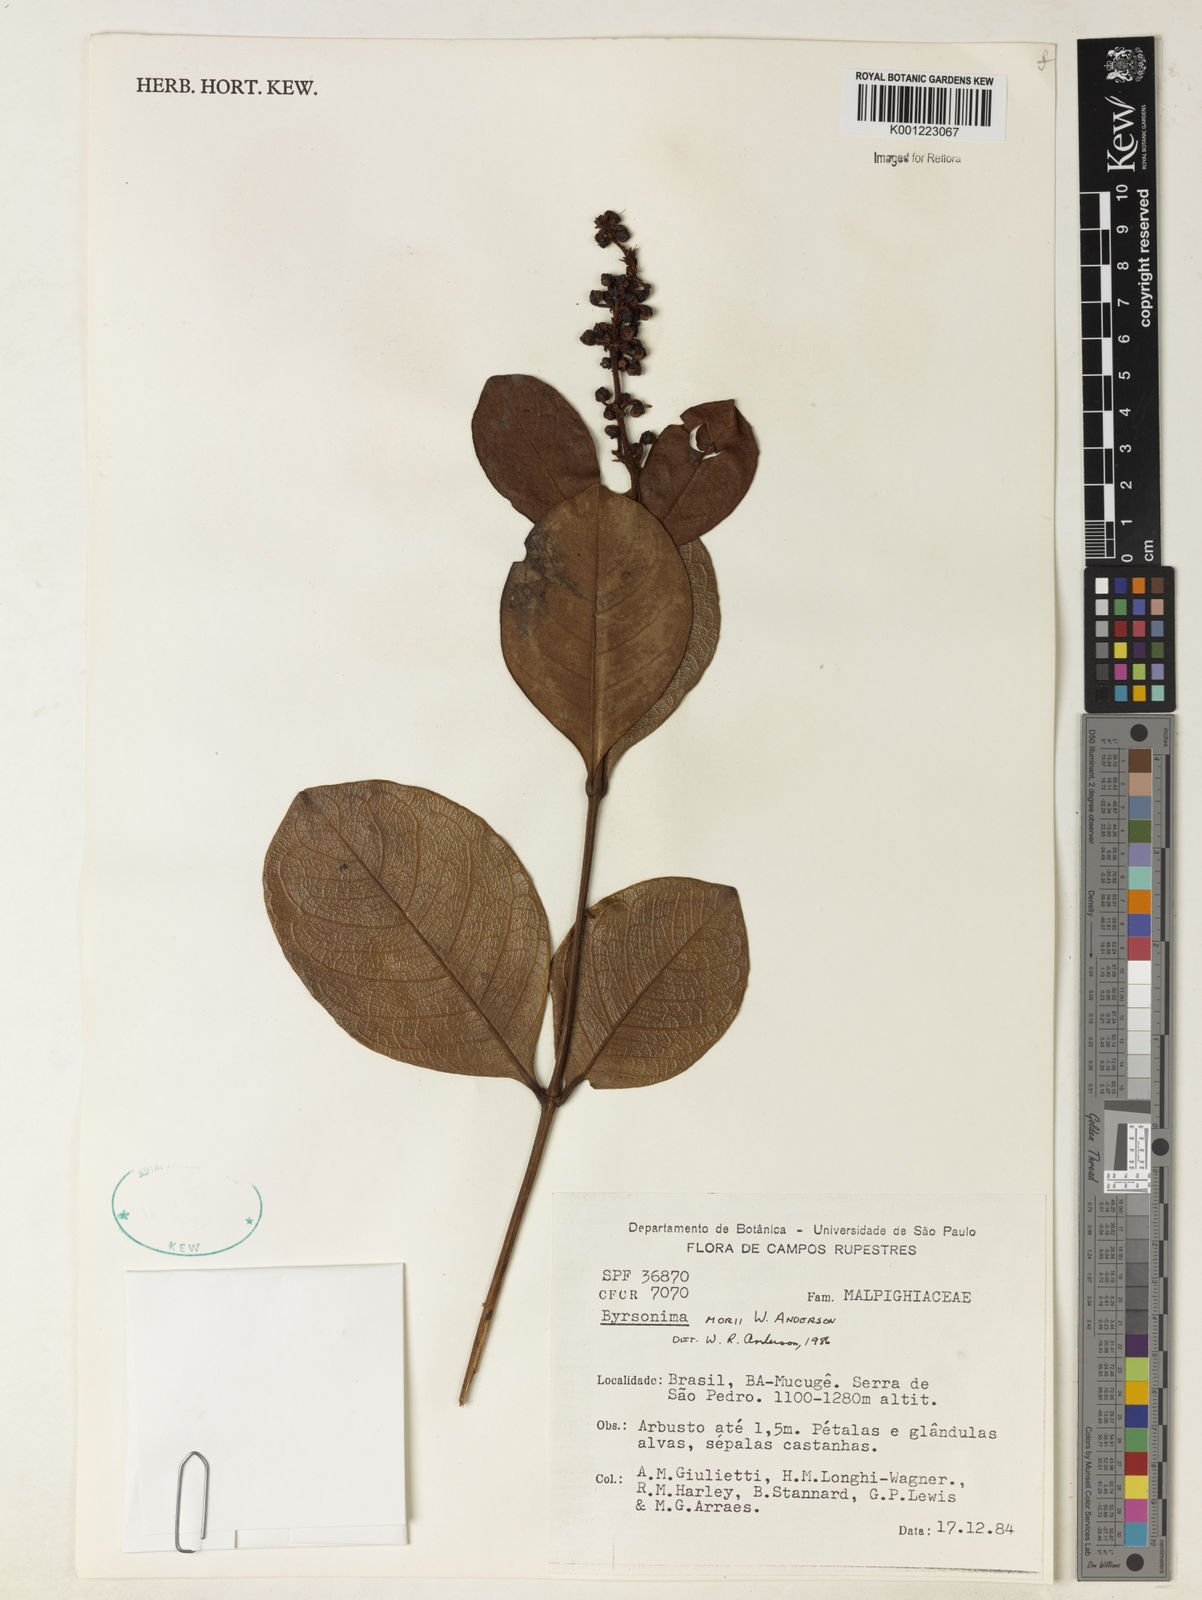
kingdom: Plantae
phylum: Tracheophyta
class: Magnoliopsida
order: Malpighiales
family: Malpighiaceae
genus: Byrsonima
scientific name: Byrsonima morii
